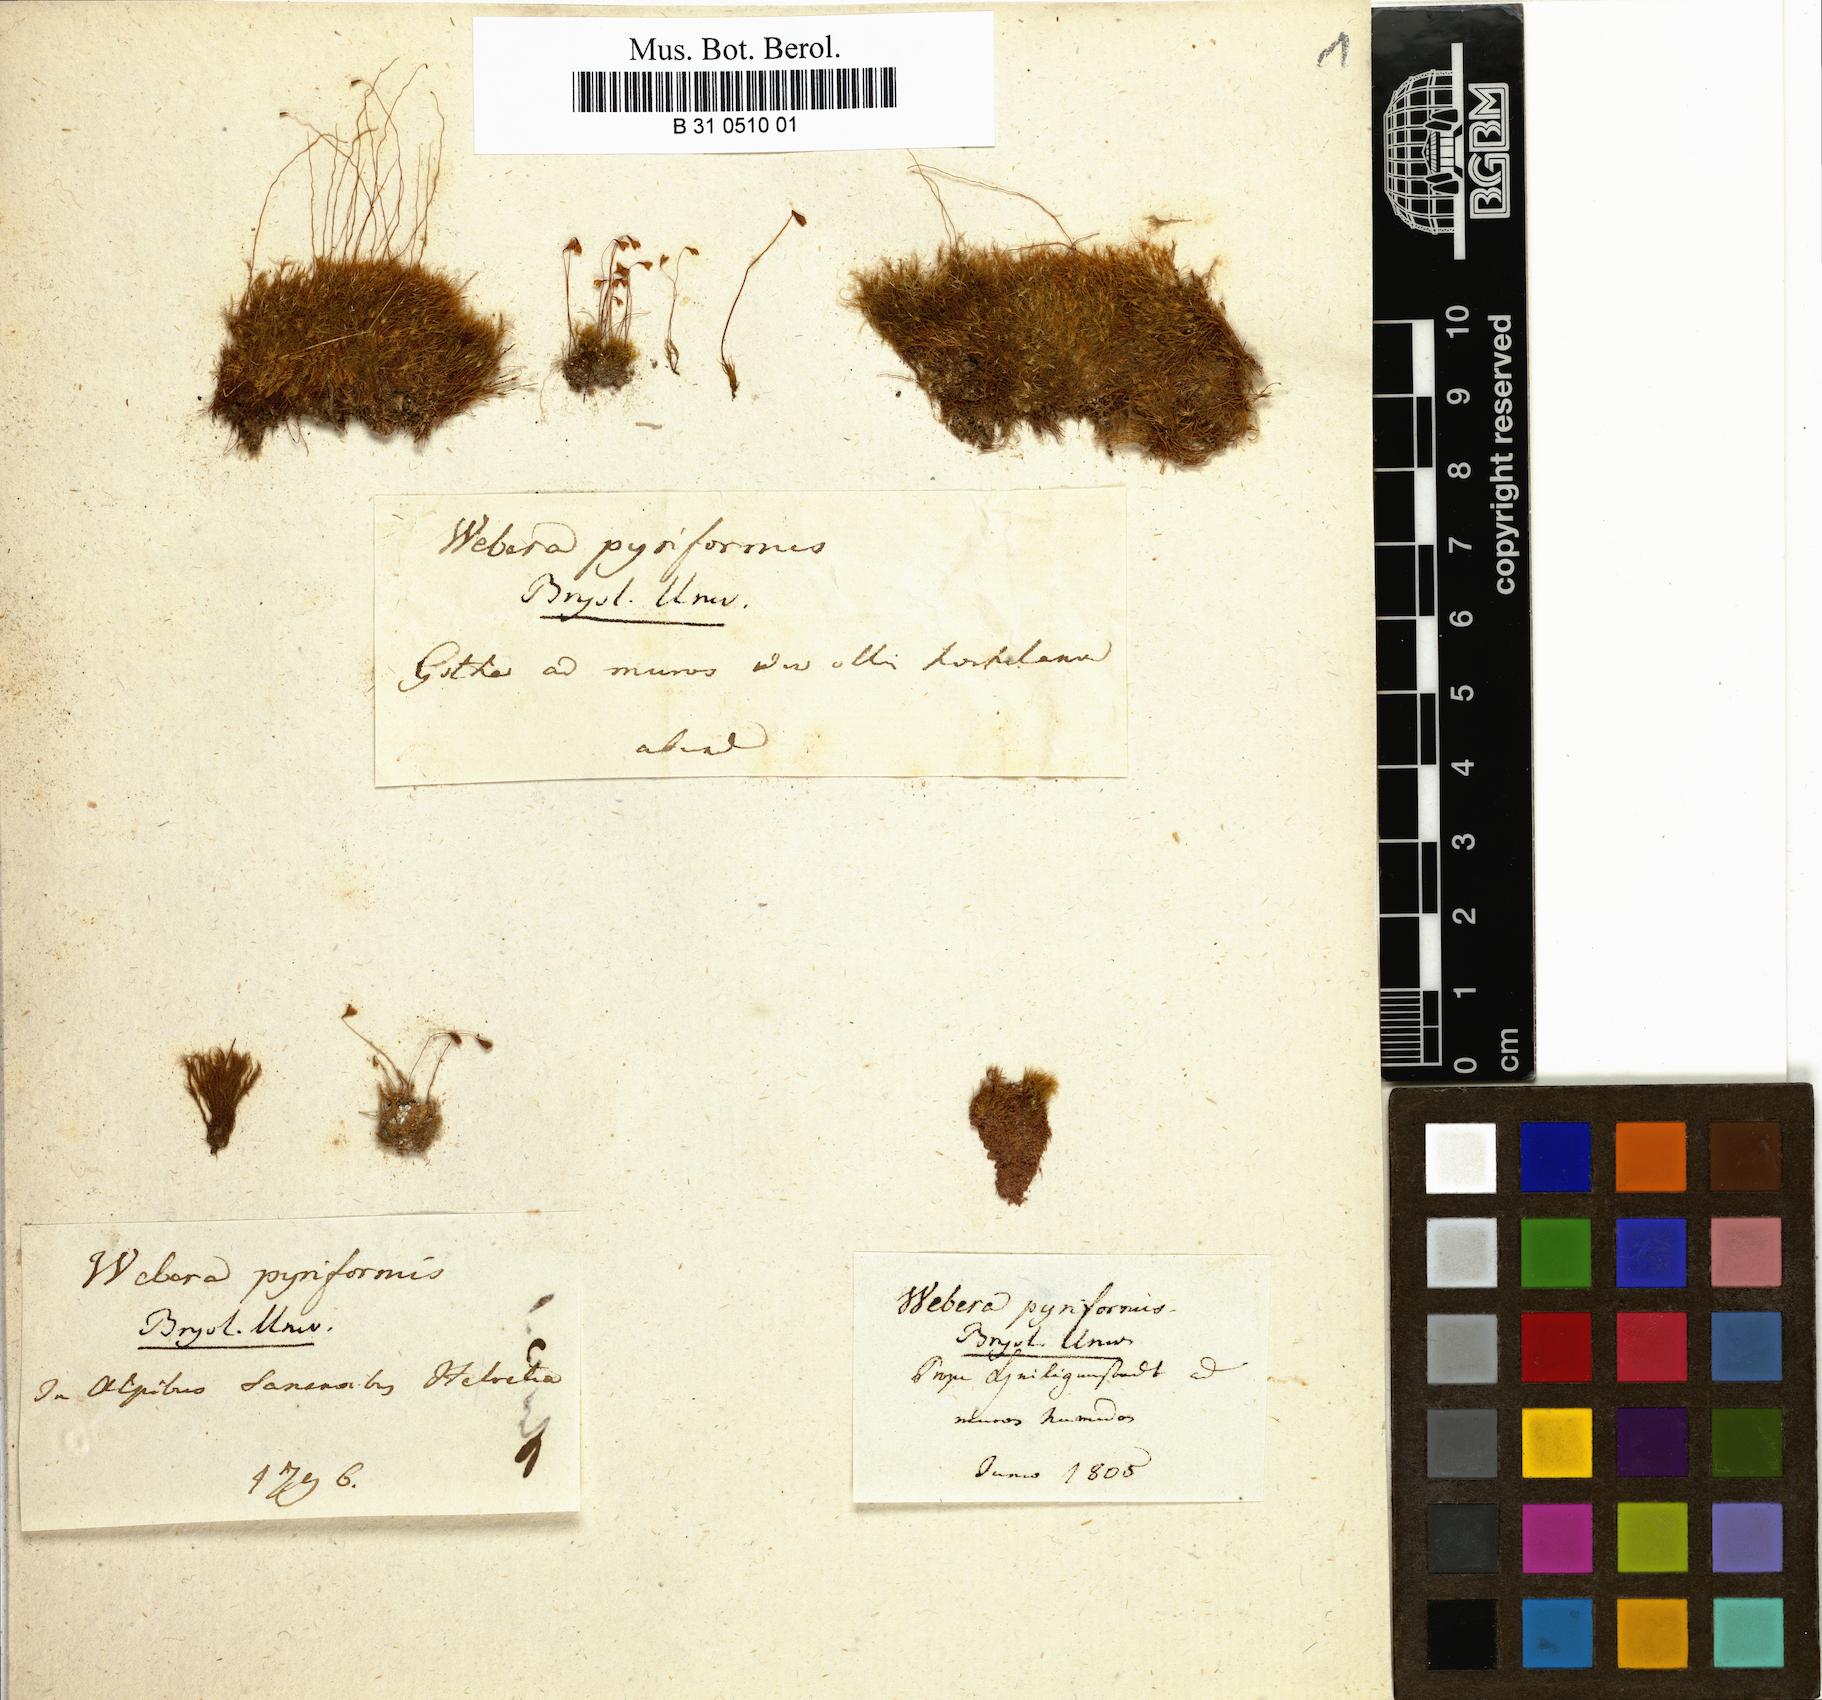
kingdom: Plantae
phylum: Bryophyta
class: Bryopsida
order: Splachnales
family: Meesiaceae
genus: Leptobryum
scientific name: Leptobryum pyriforme
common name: Golden thread moss
